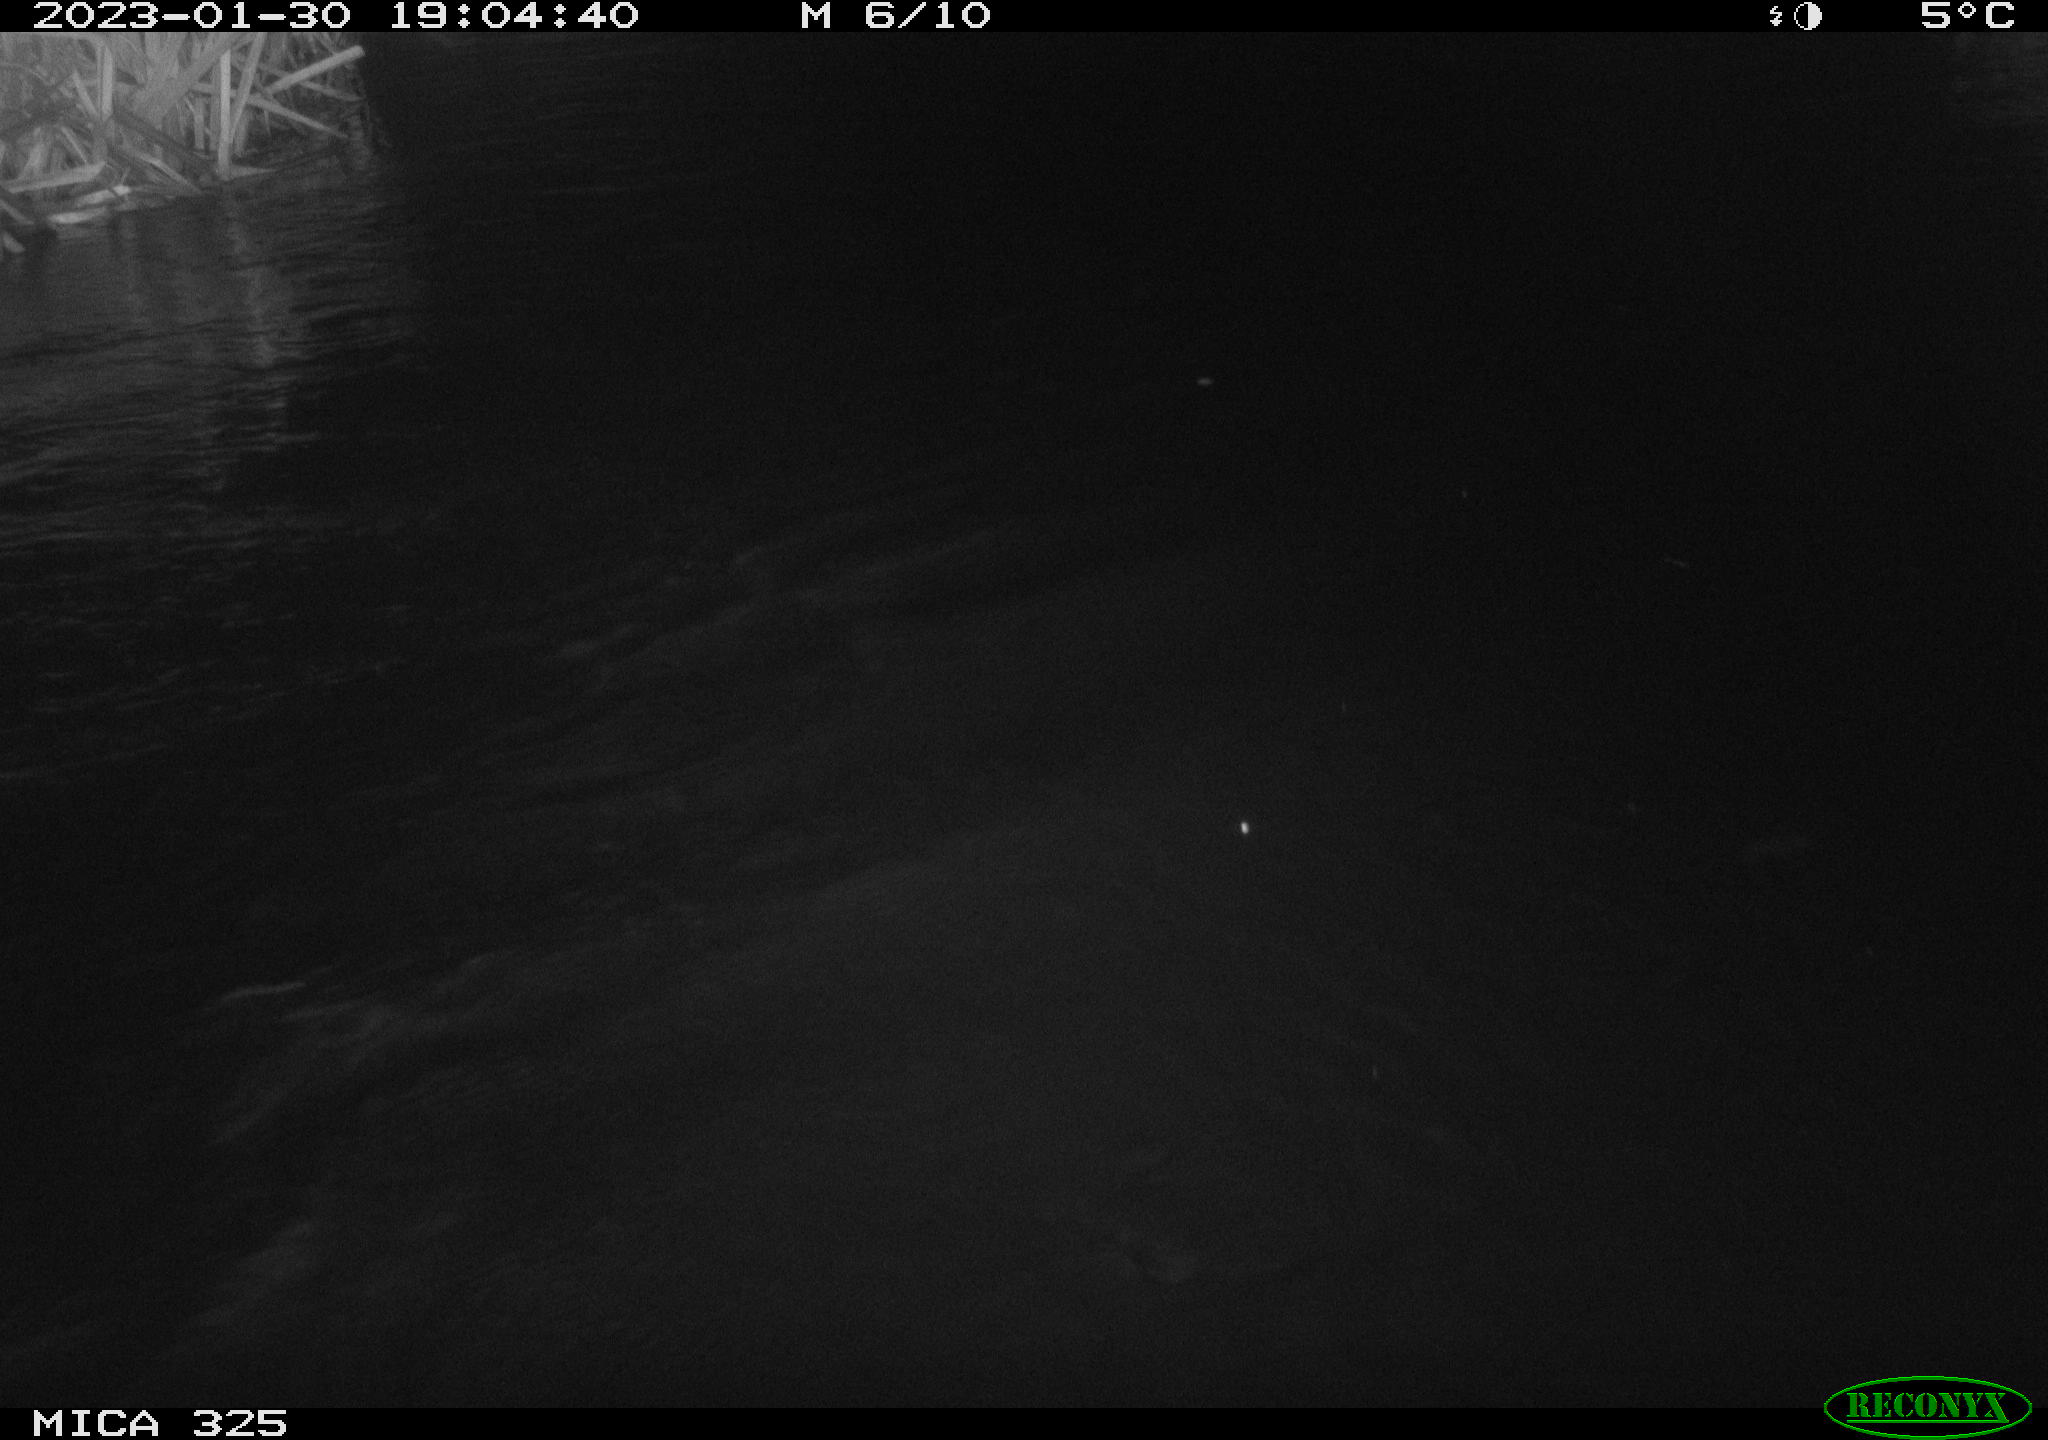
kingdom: Animalia
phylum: Chordata
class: Mammalia
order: Rodentia
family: Myocastoridae
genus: Myocastor
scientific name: Myocastor coypus
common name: Coypu
